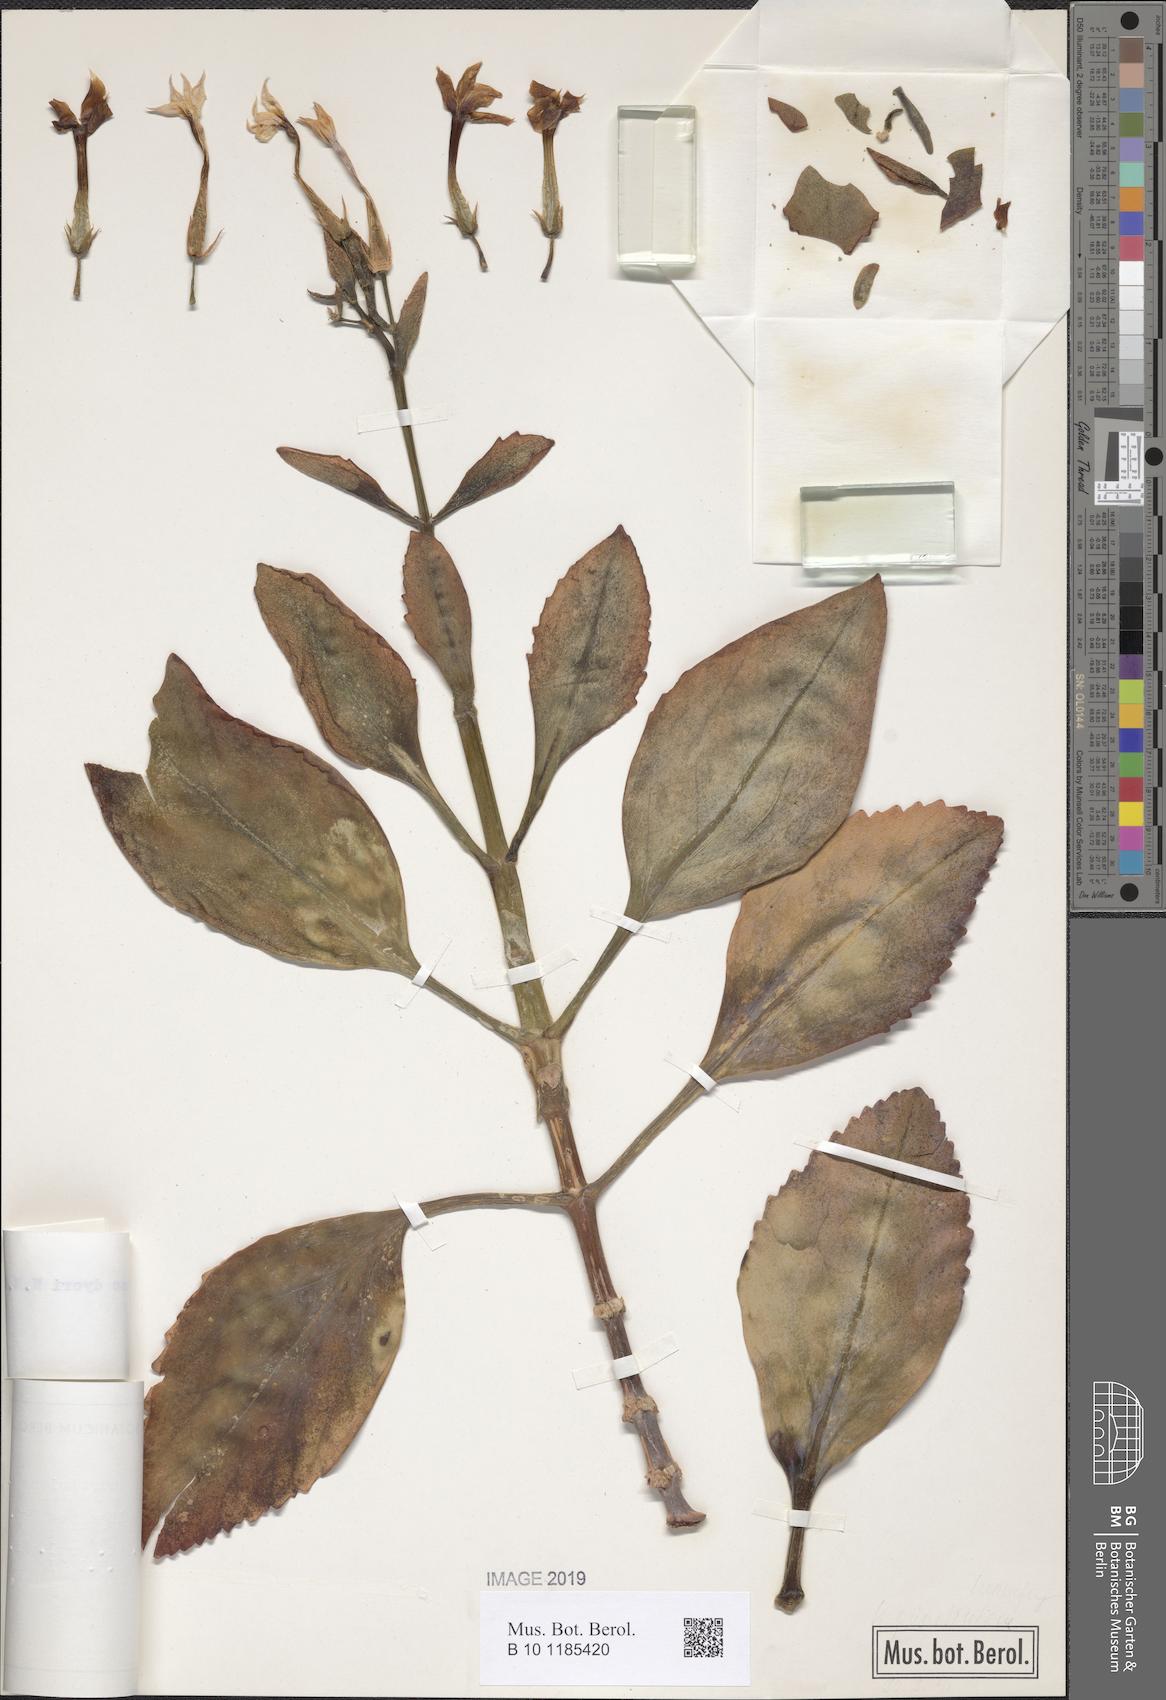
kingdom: Plantae
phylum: Tracheophyta
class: Magnoliopsida
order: Saxifragales
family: Crassulaceae
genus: Kalanchoe
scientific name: Kalanchoe dyeri
